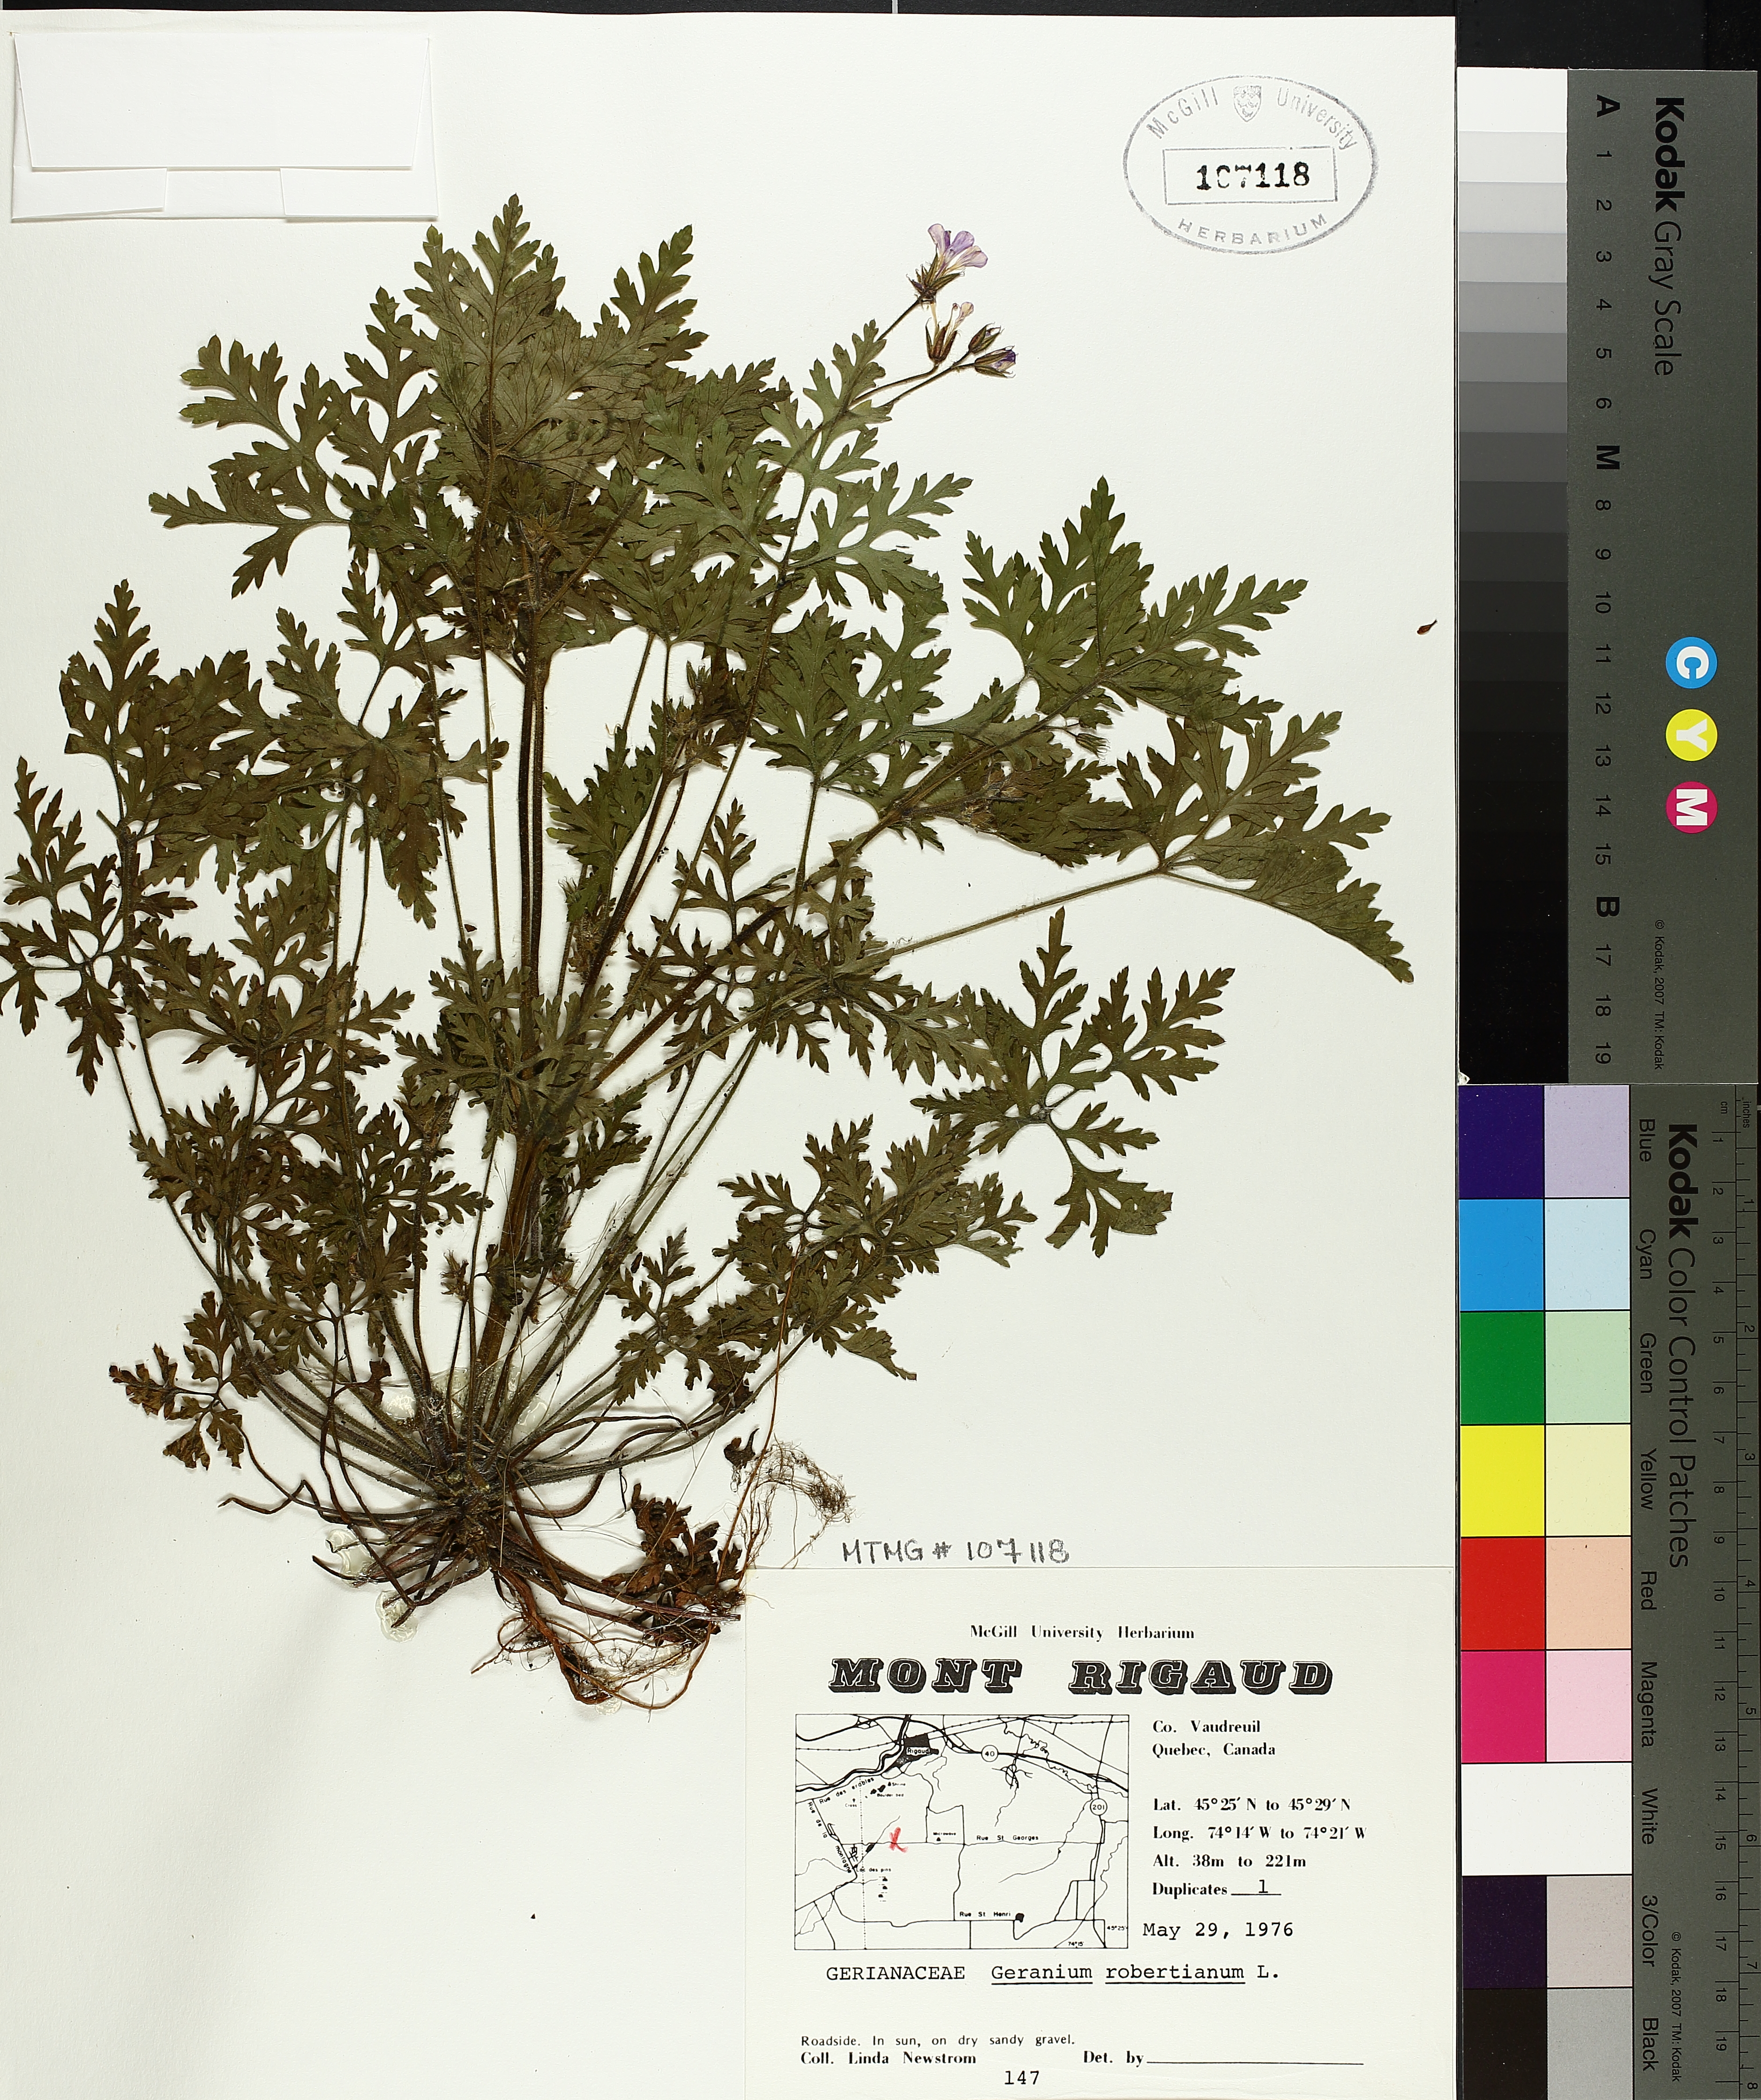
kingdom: Plantae
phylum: Tracheophyta
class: Magnoliopsida
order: Geraniales
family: Geraniaceae
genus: Geranium
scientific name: Geranium robertianum
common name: Herb-robert
